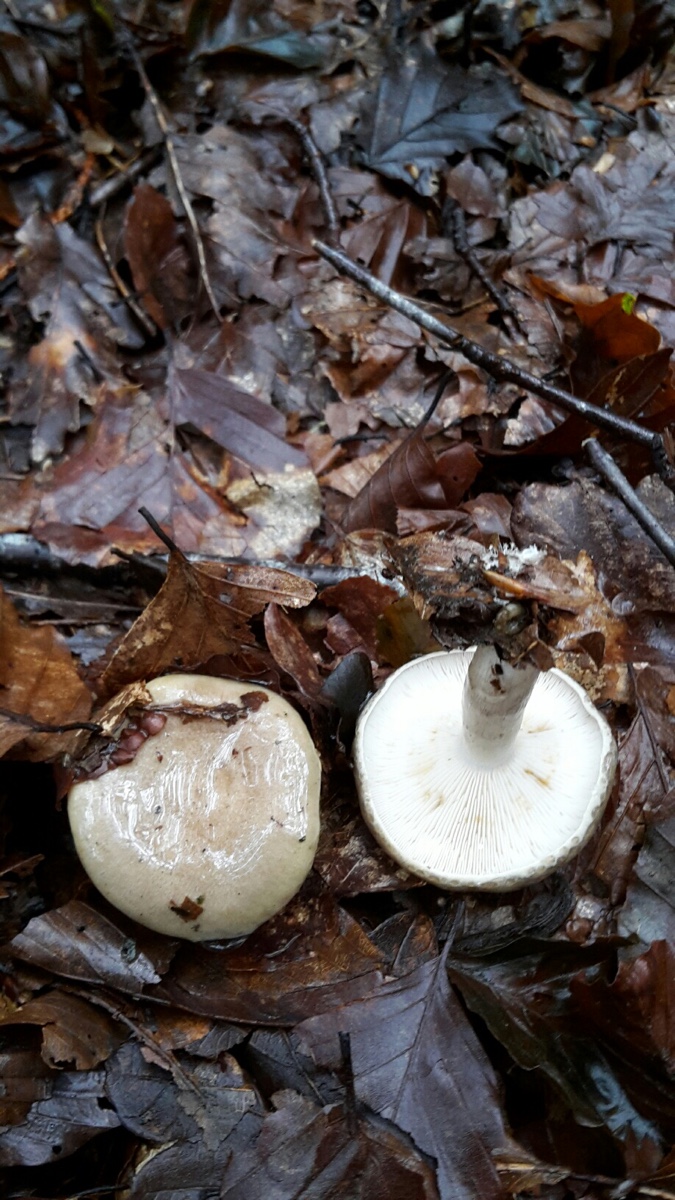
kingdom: Fungi
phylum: Basidiomycota
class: Agaricomycetes
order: Russulales
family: Russulaceae
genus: Lactarius
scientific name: Lactarius blennius
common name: dråbeplettet mælkehat
